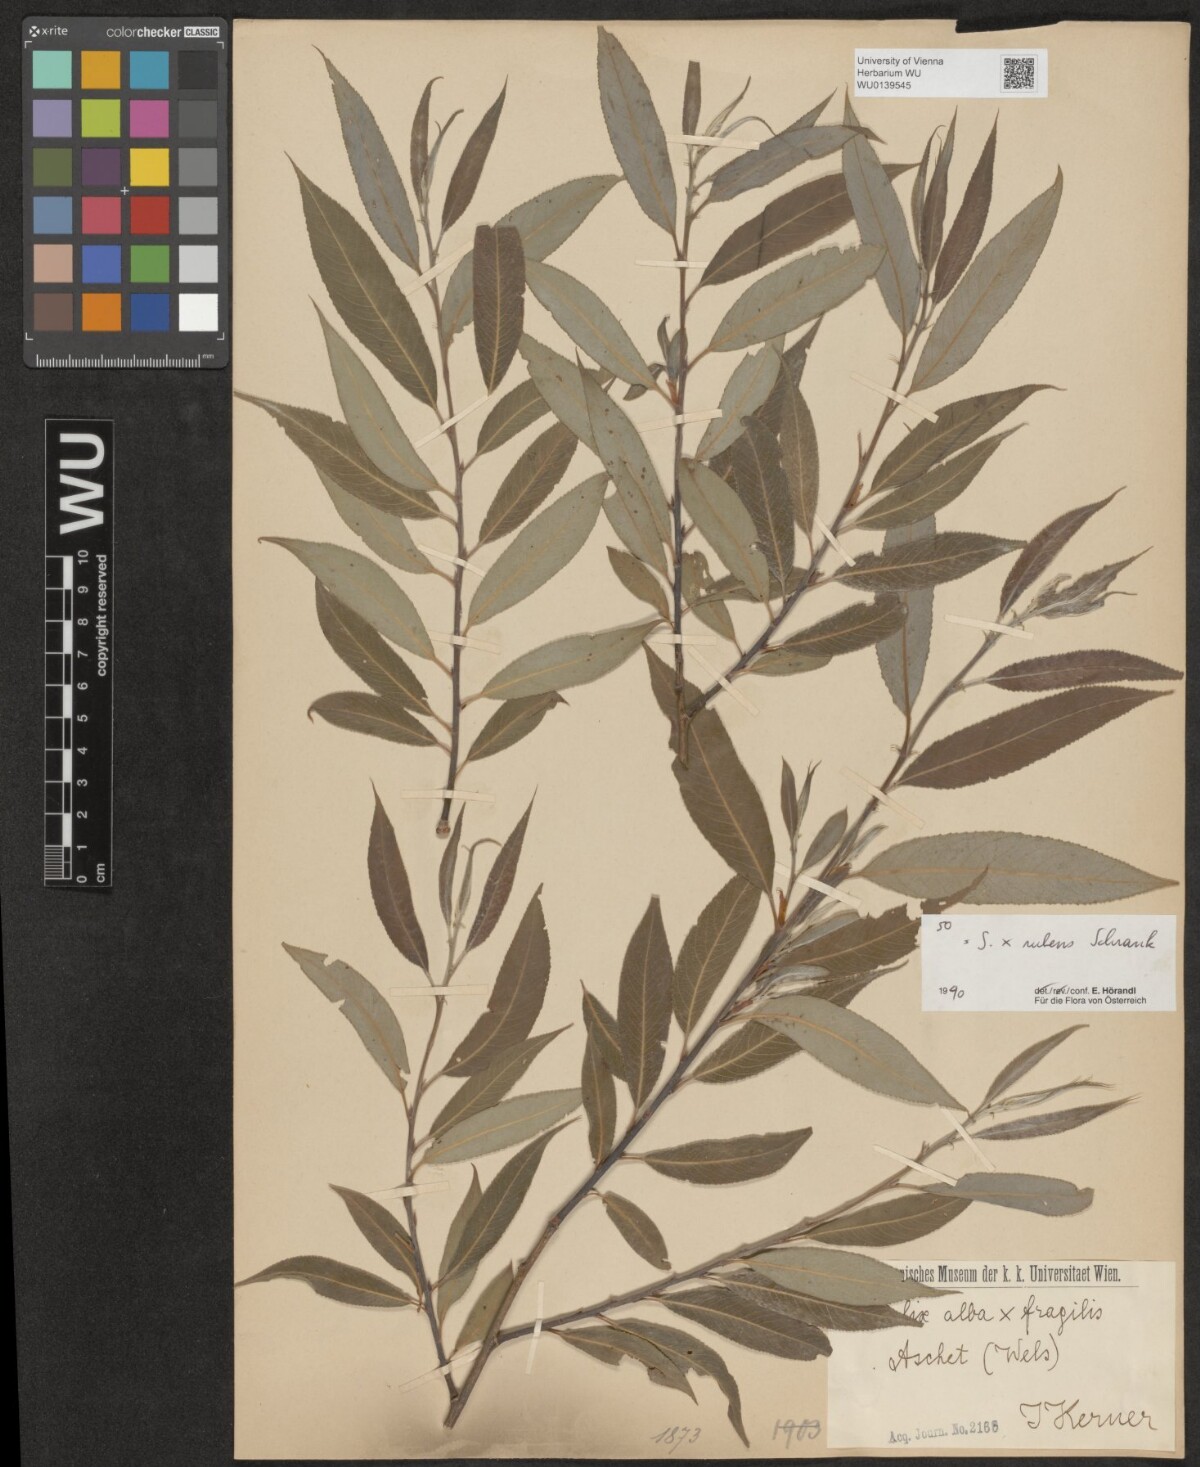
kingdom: Plantae
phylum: Tracheophyta
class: Magnoliopsida
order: Malpighiales
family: Salicaceae
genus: Salix
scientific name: Salix rubens
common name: Hybrid crack willow
